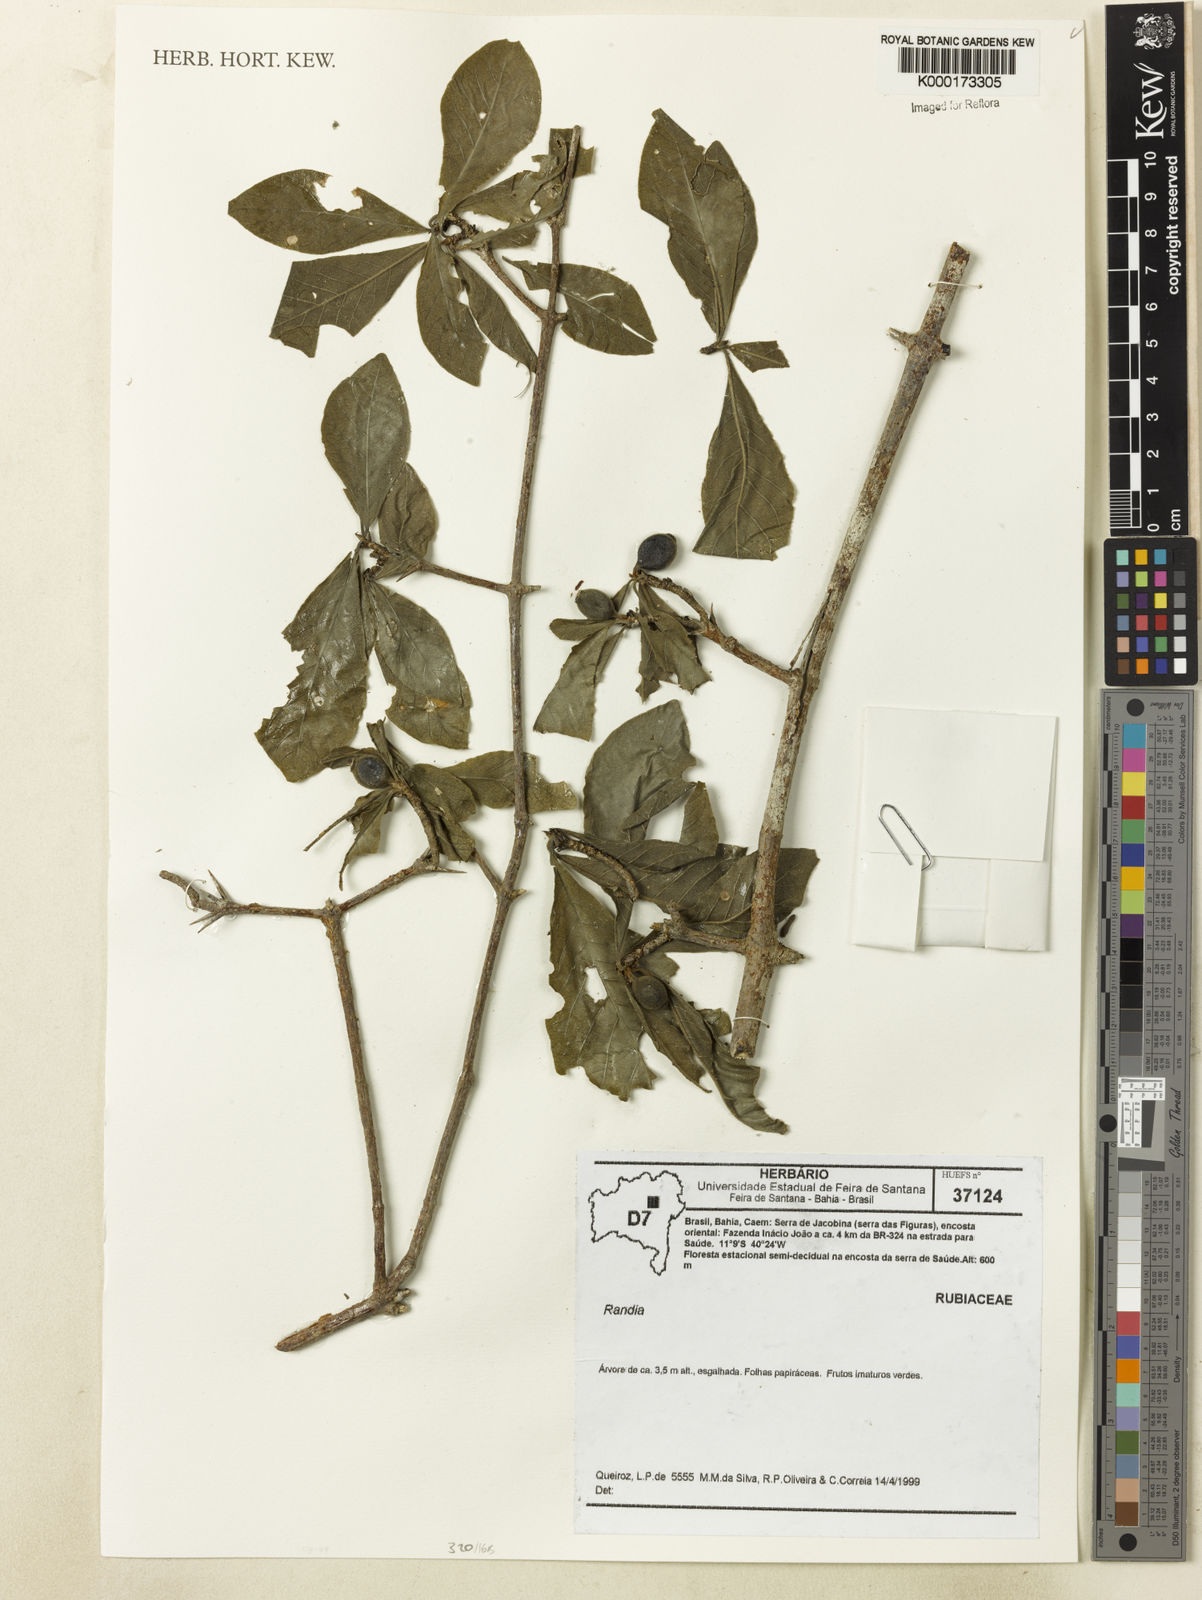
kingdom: Plantae
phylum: Tracheophyta
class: Magnoliopsida
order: Gentianales
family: Rubiaceae
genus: Randia
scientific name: Randia
